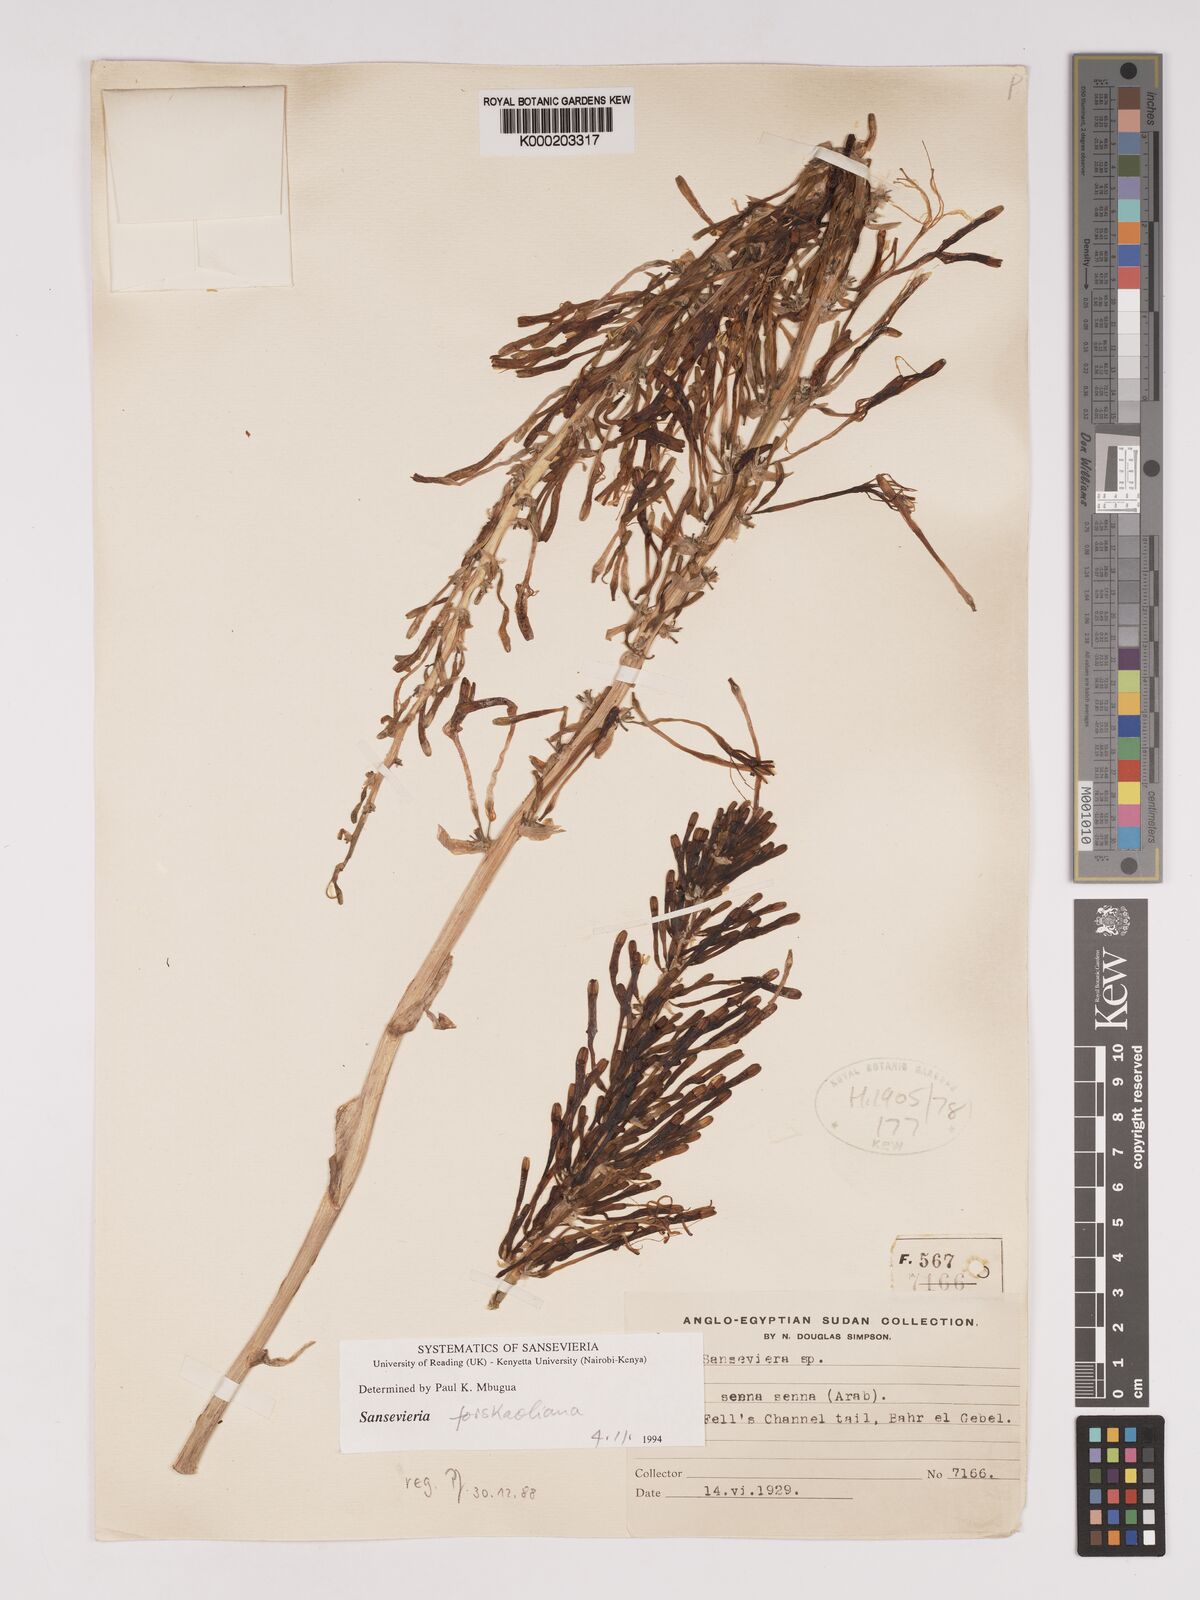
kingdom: Plantae
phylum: Tracheophyta
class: Liliopsida
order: Asparagales
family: Asparagaceae
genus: Dracaena
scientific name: Dracaena
